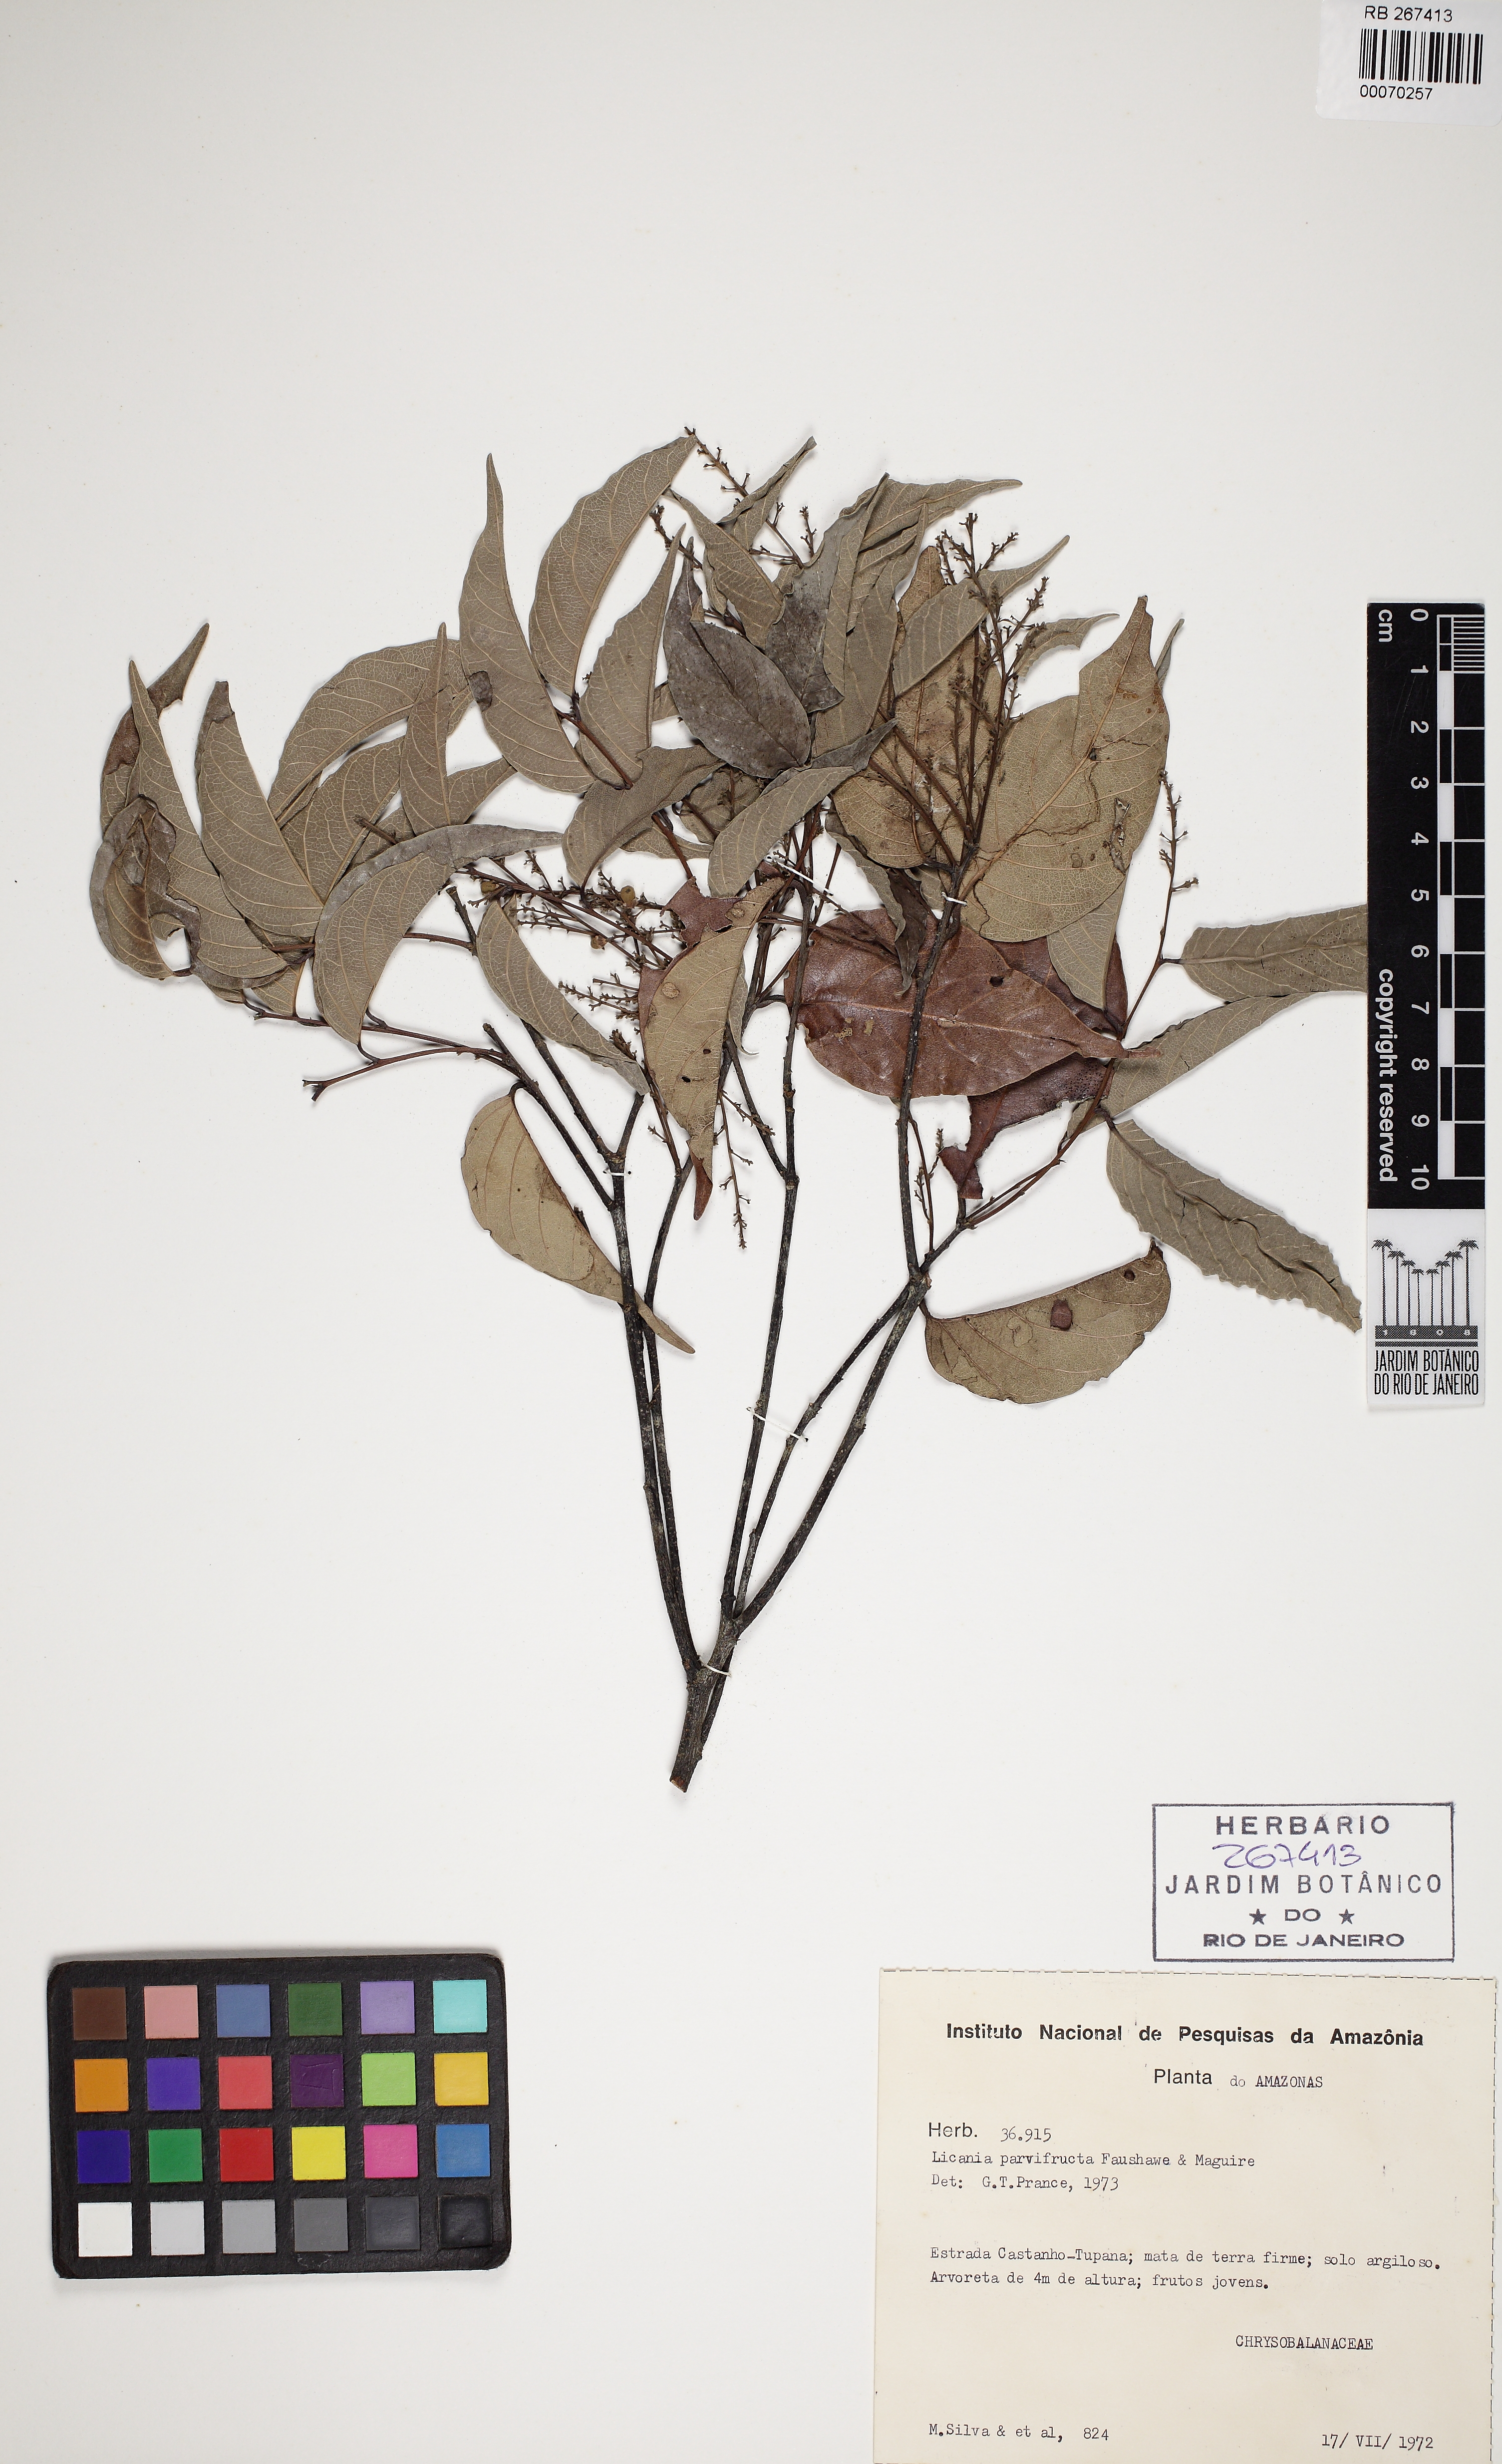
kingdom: Plantae
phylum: Tracheophyta
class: Magnoliopsida
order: Malpighiales
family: Chrysobalanaceae
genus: Licania
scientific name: Licania parvifructa
